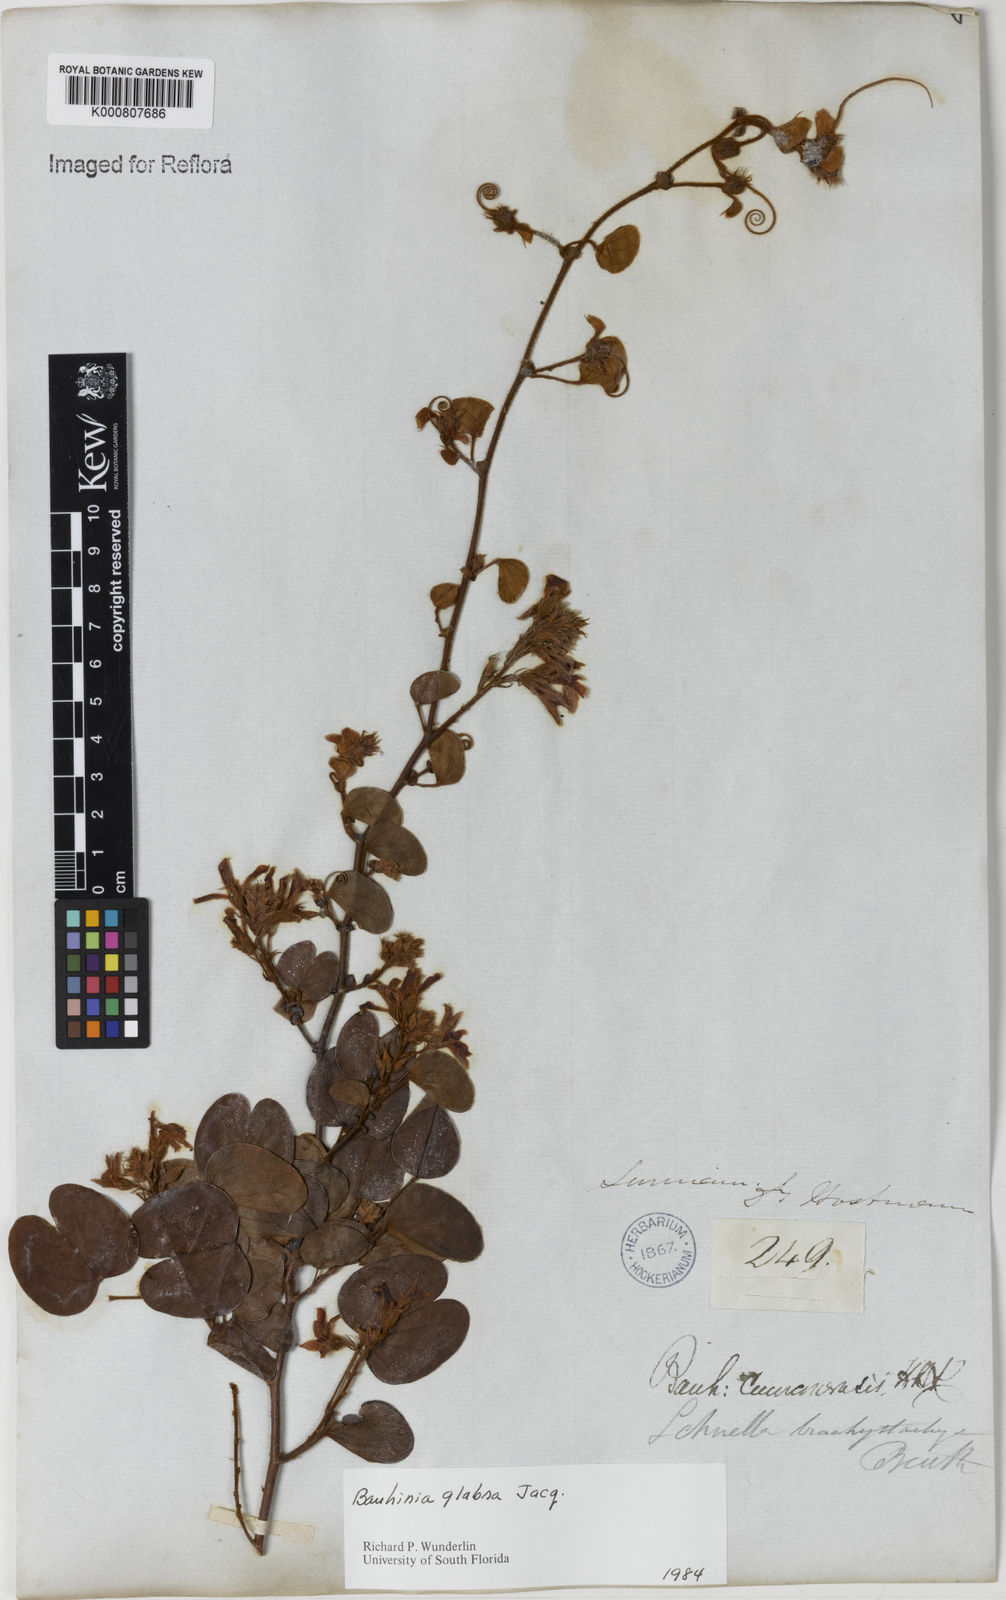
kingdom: Plantae
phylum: Tracheophyta
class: Magnoliopsida
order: Fabales
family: Fabaceae
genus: Schnella
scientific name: Schnella glabra
